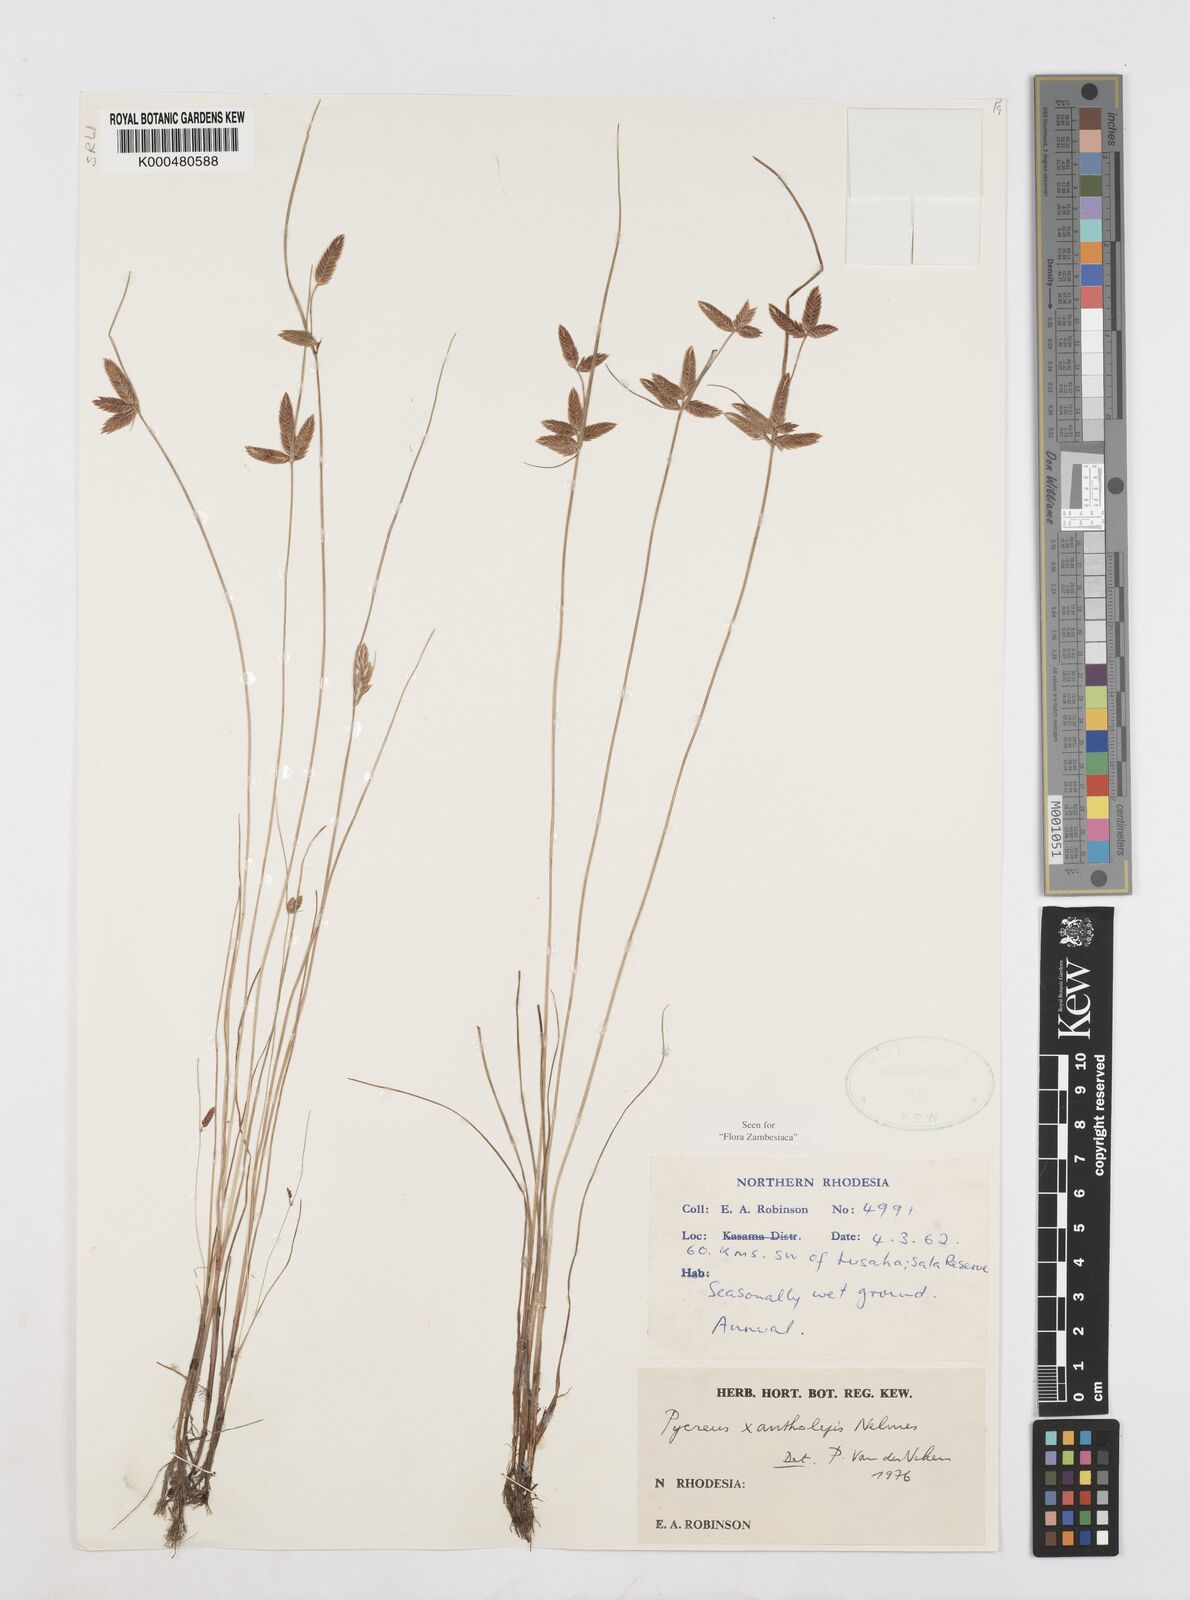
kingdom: Plantae
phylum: Tracheophyta
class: Liliopsida
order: Poales
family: Cyperaceae
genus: Cyperus
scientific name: Cyperus xantholepis
